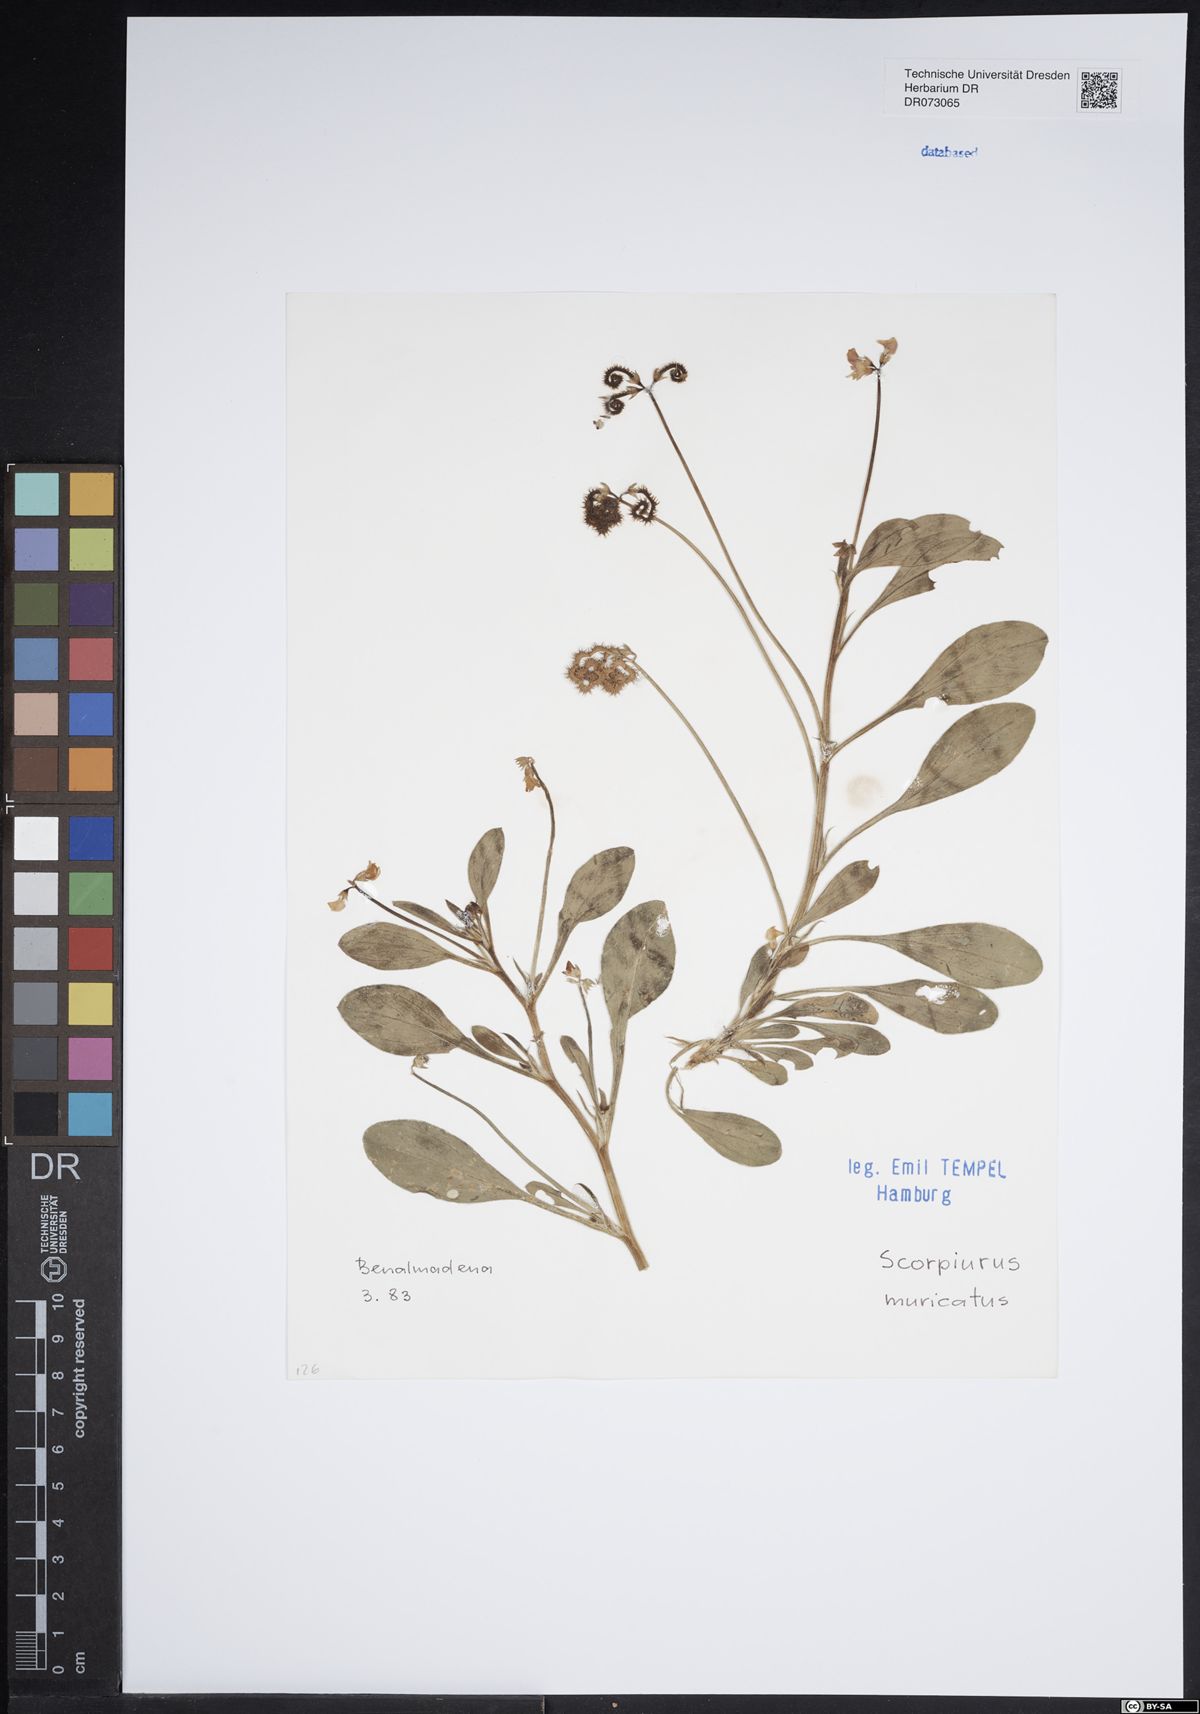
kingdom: Plantae
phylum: Tracheophyta
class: Magnoliopsida
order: Fabales
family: Fabaceae
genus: Scorpiurus
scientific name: Scorpiurus muricatus
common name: Caterpillar-plant
